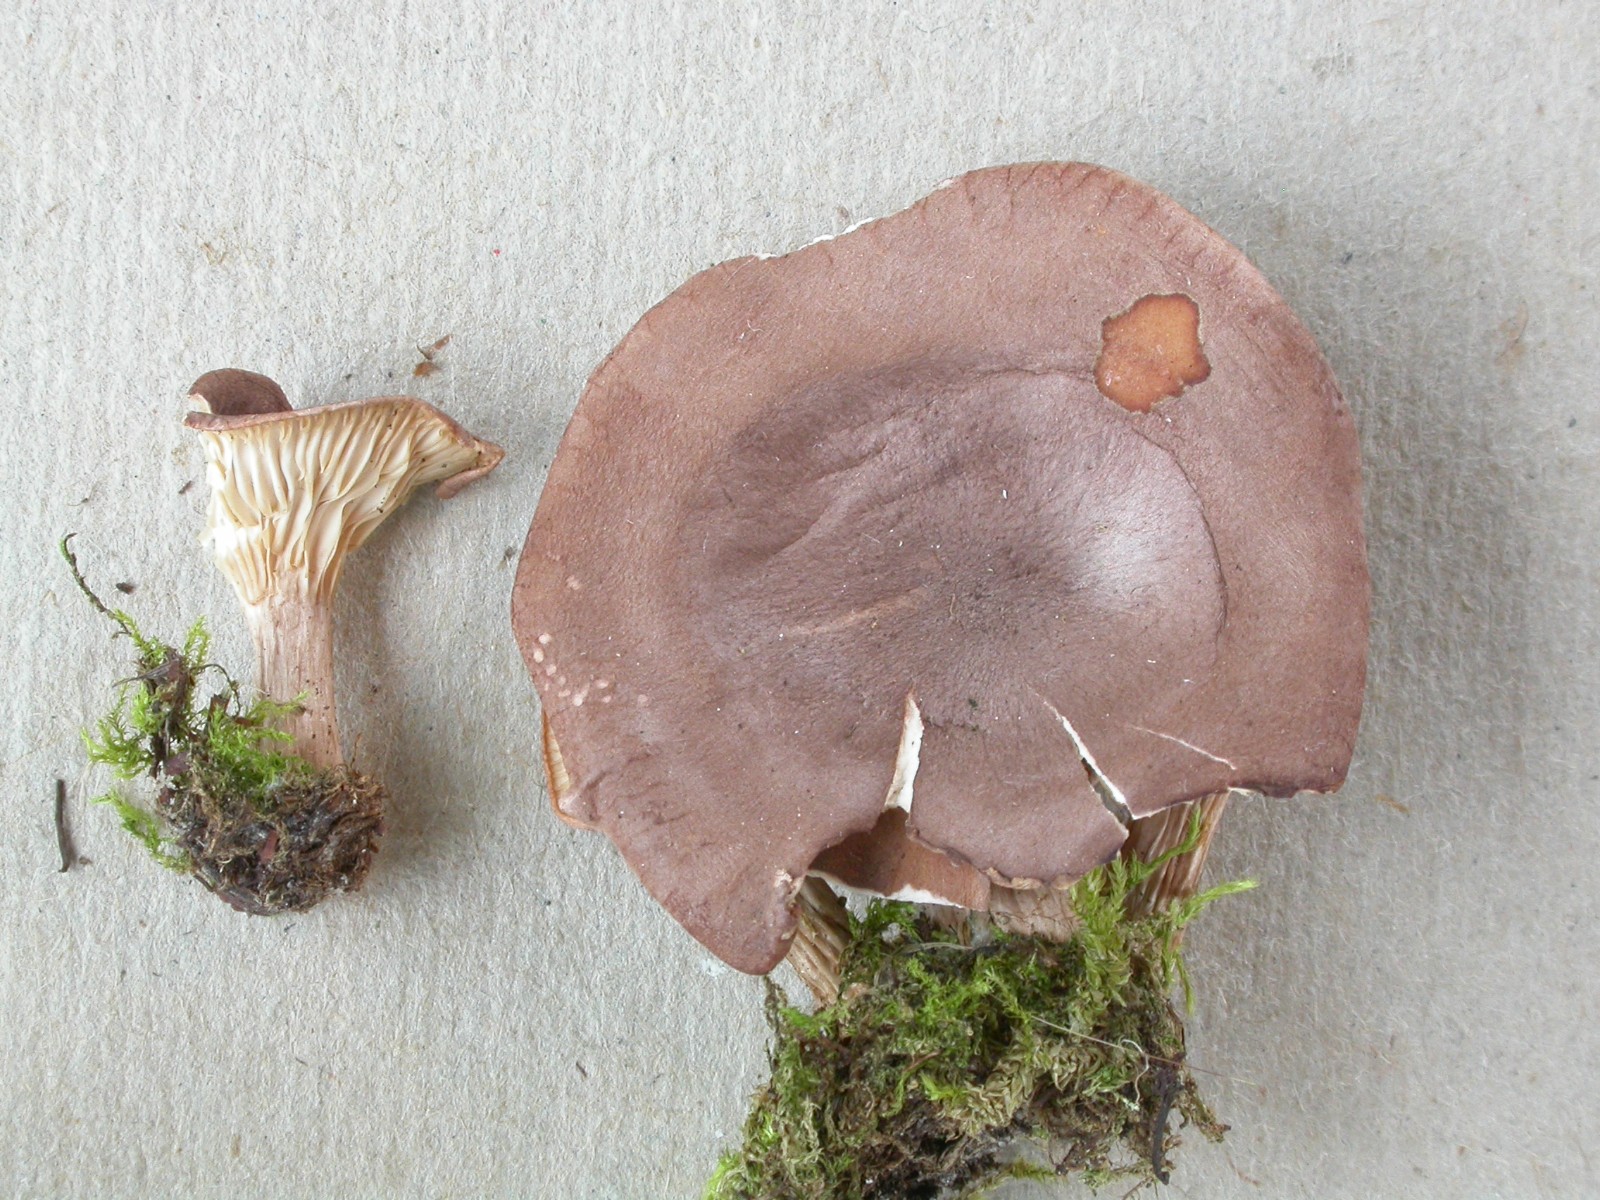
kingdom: Fungi
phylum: Basidiomycota
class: Agaricomycetes
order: Agaricales
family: Tricholomataceae
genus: Clitocybe
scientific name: Clitocybe glareosa
